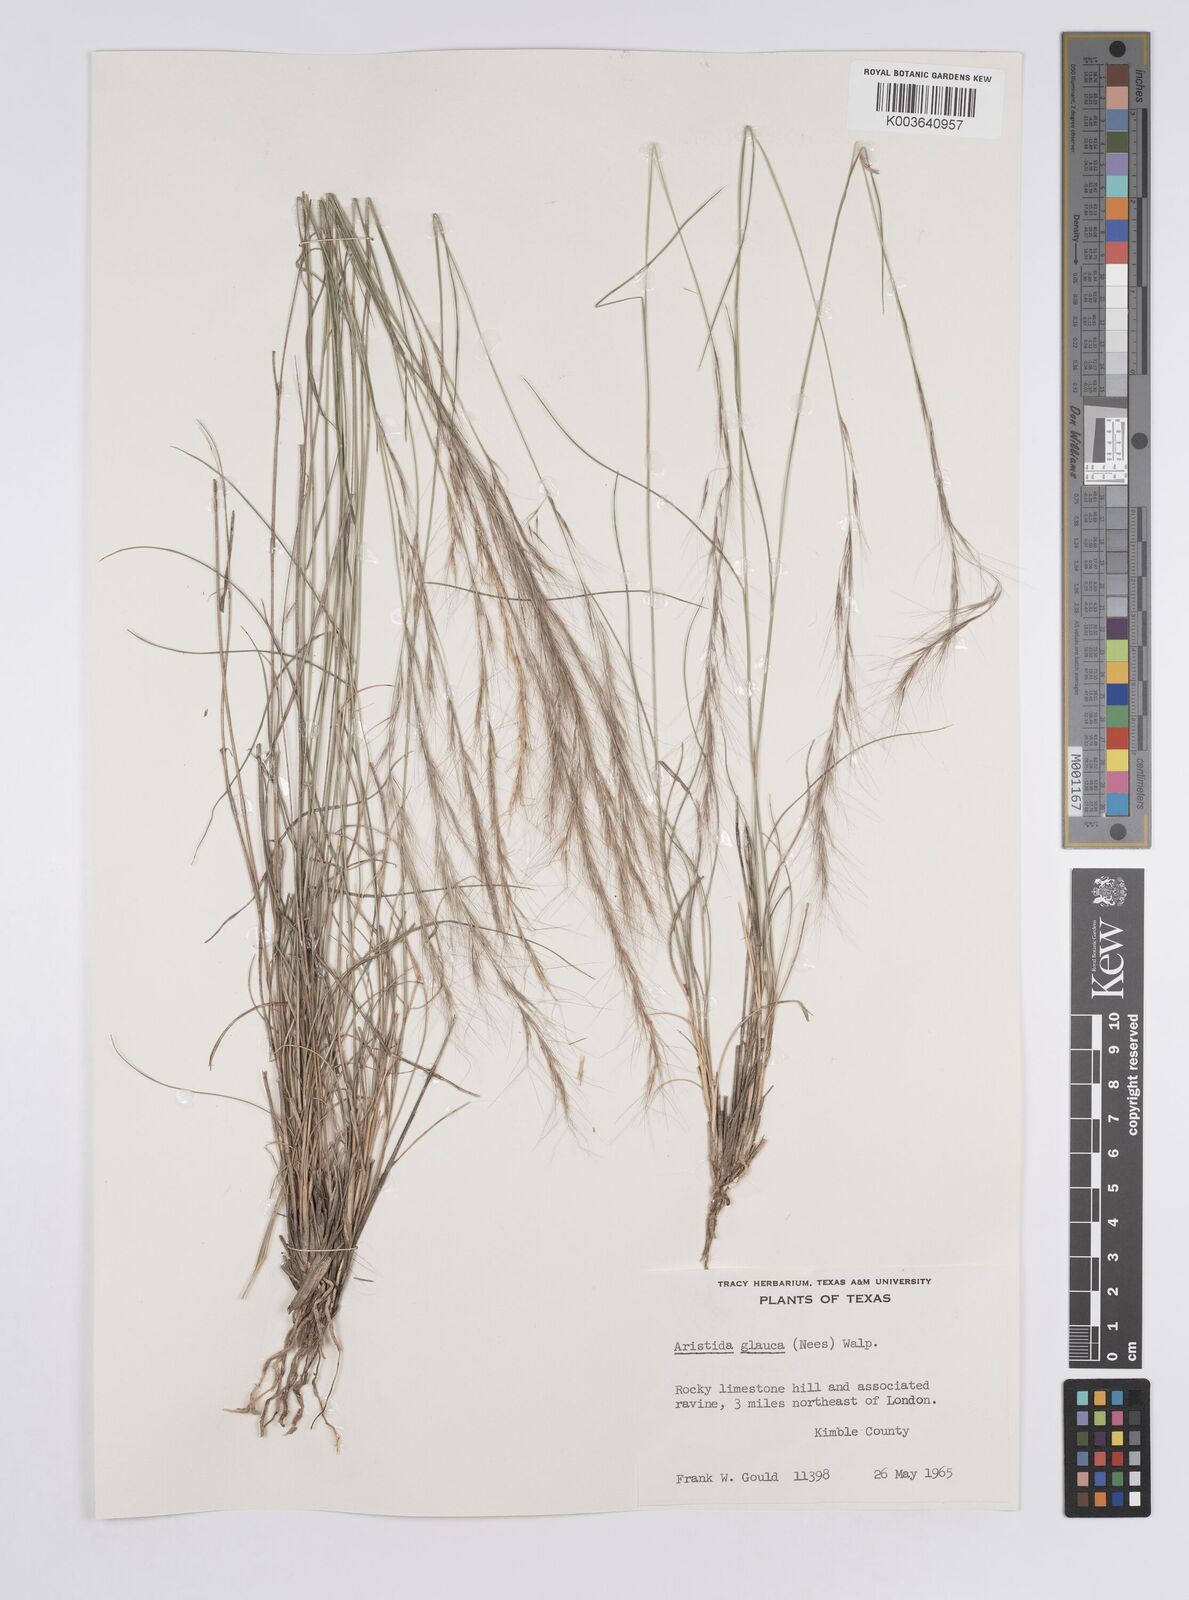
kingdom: Plantae
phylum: Tracheophyta
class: Liliopsida
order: Poales
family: Poaceae
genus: Aristida
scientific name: Aristida purpurea
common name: Purple threeawn
